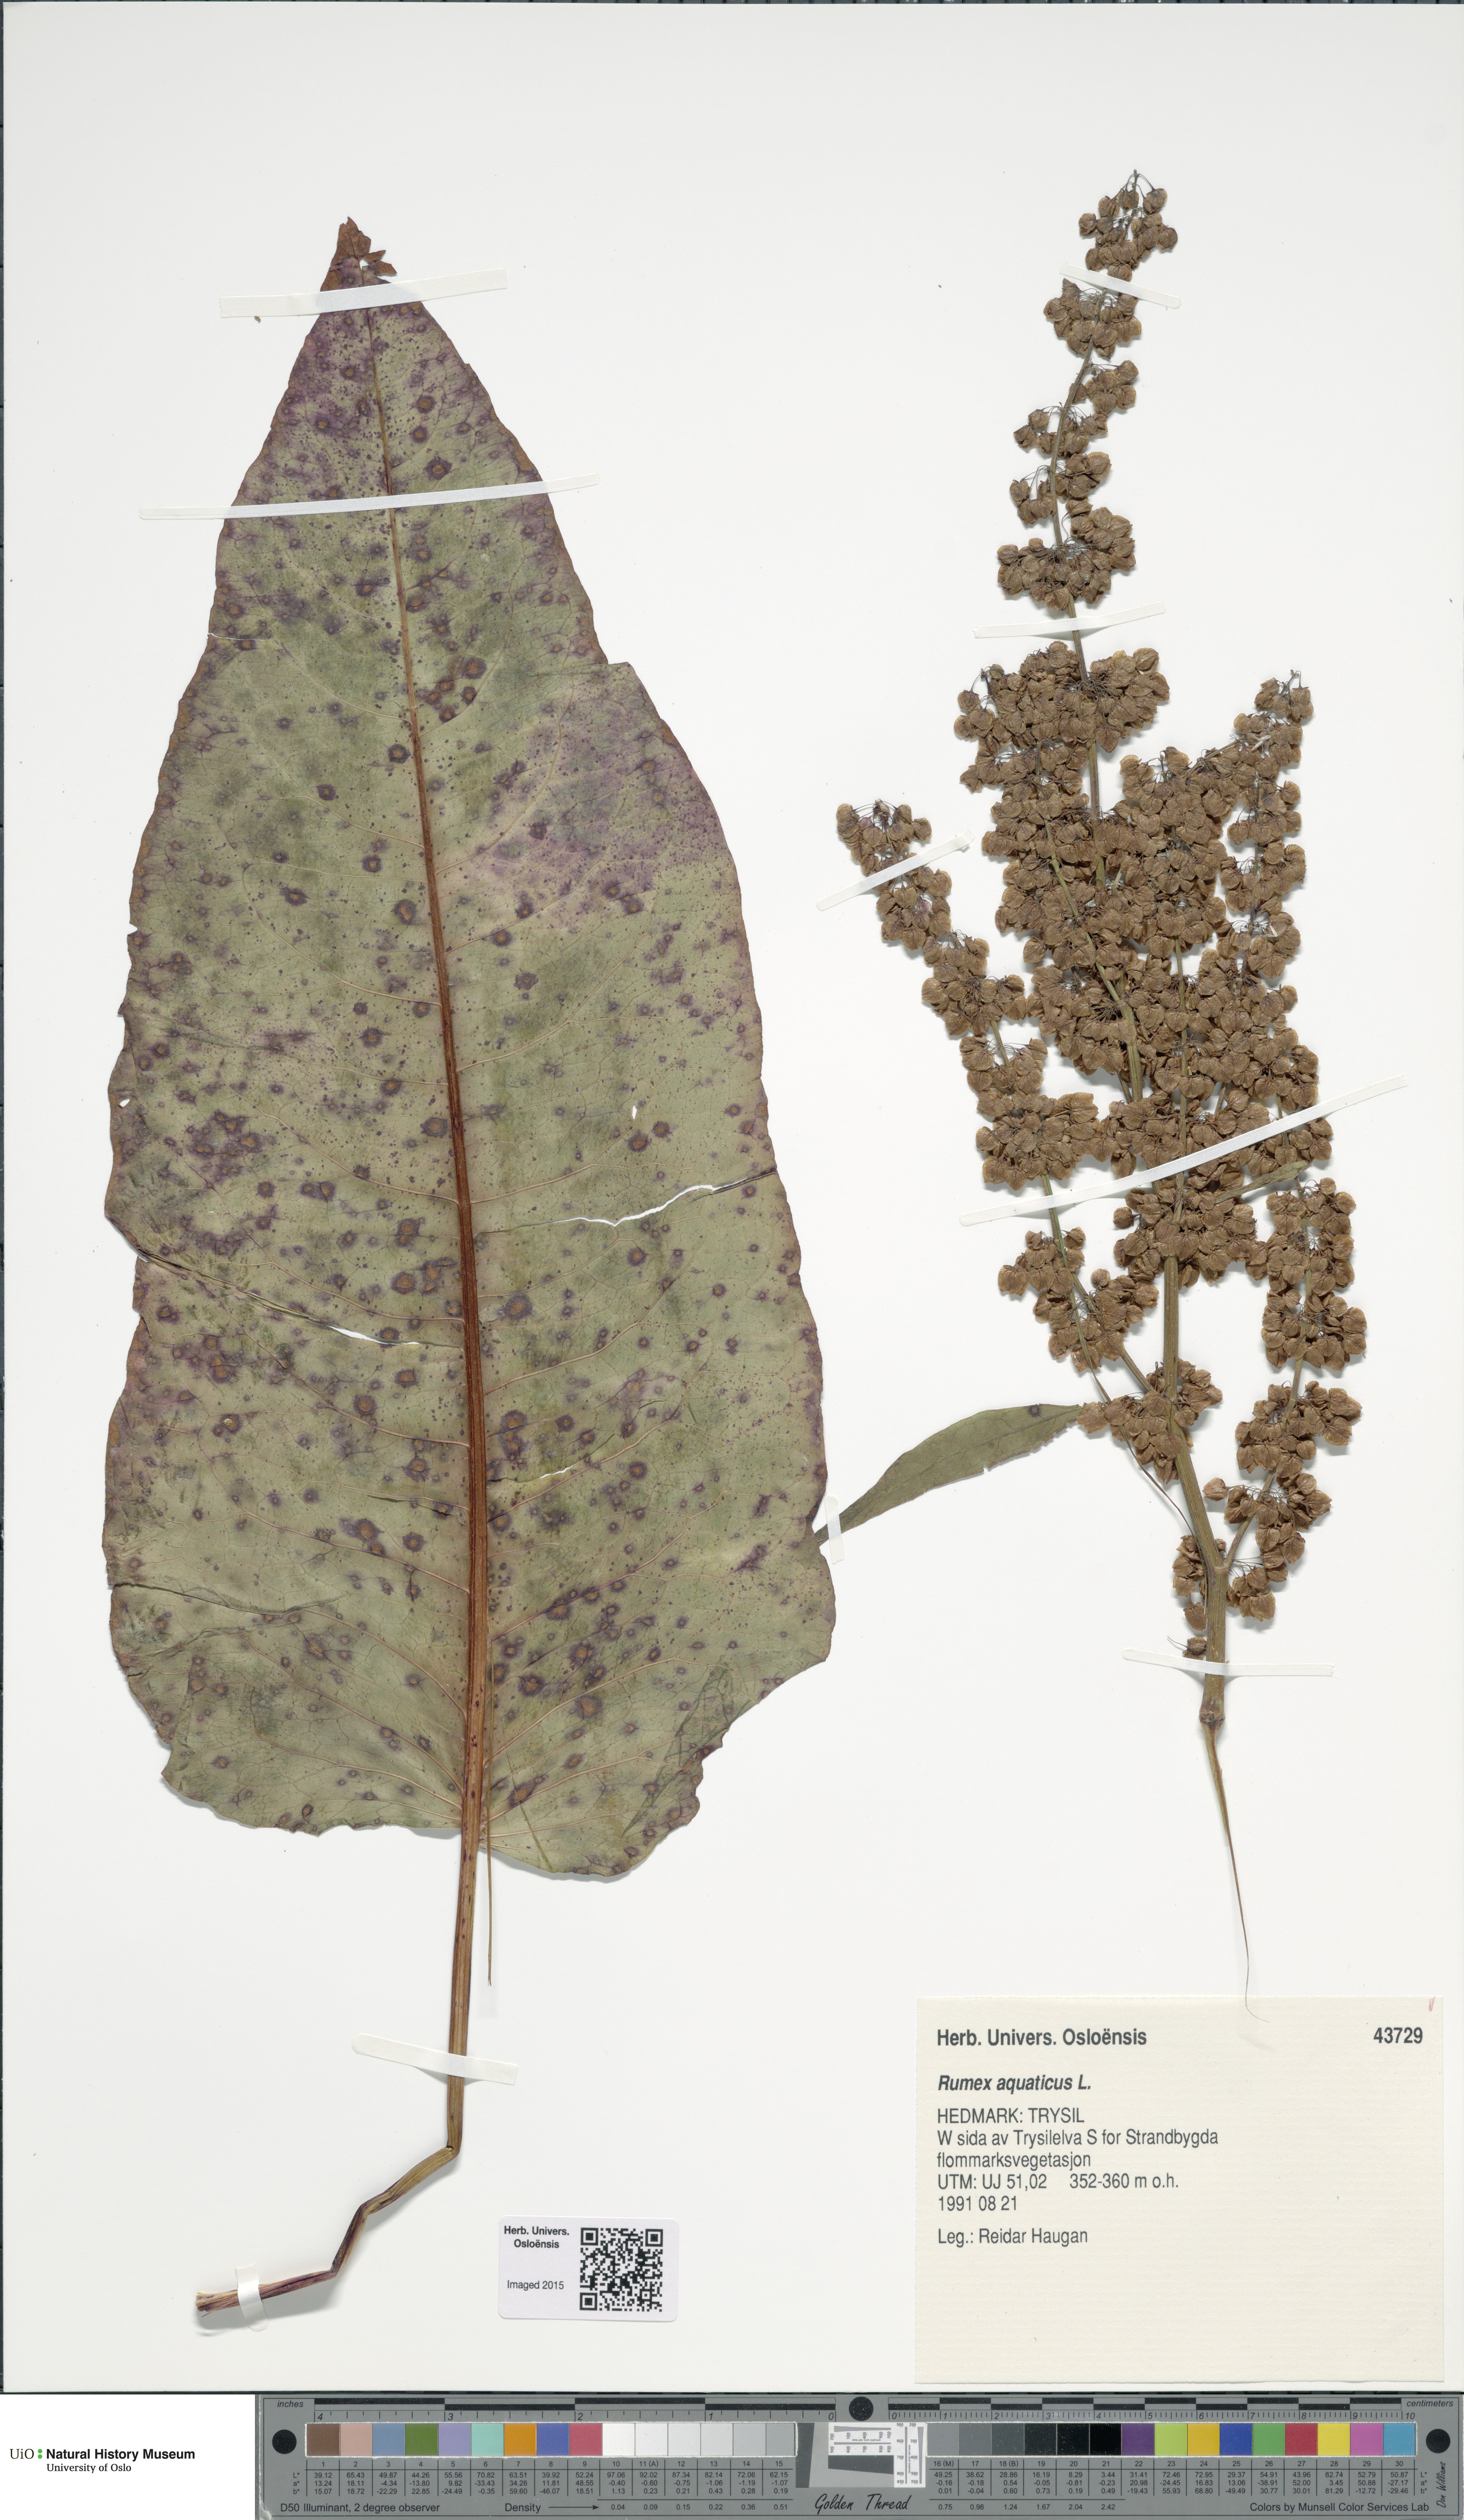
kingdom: Plantae
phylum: Tracheophyta
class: Magnoliopsida
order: Caryophyllales
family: Polygonaceae
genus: Rumex
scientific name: Rumex aquaticus
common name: Scottish dock
